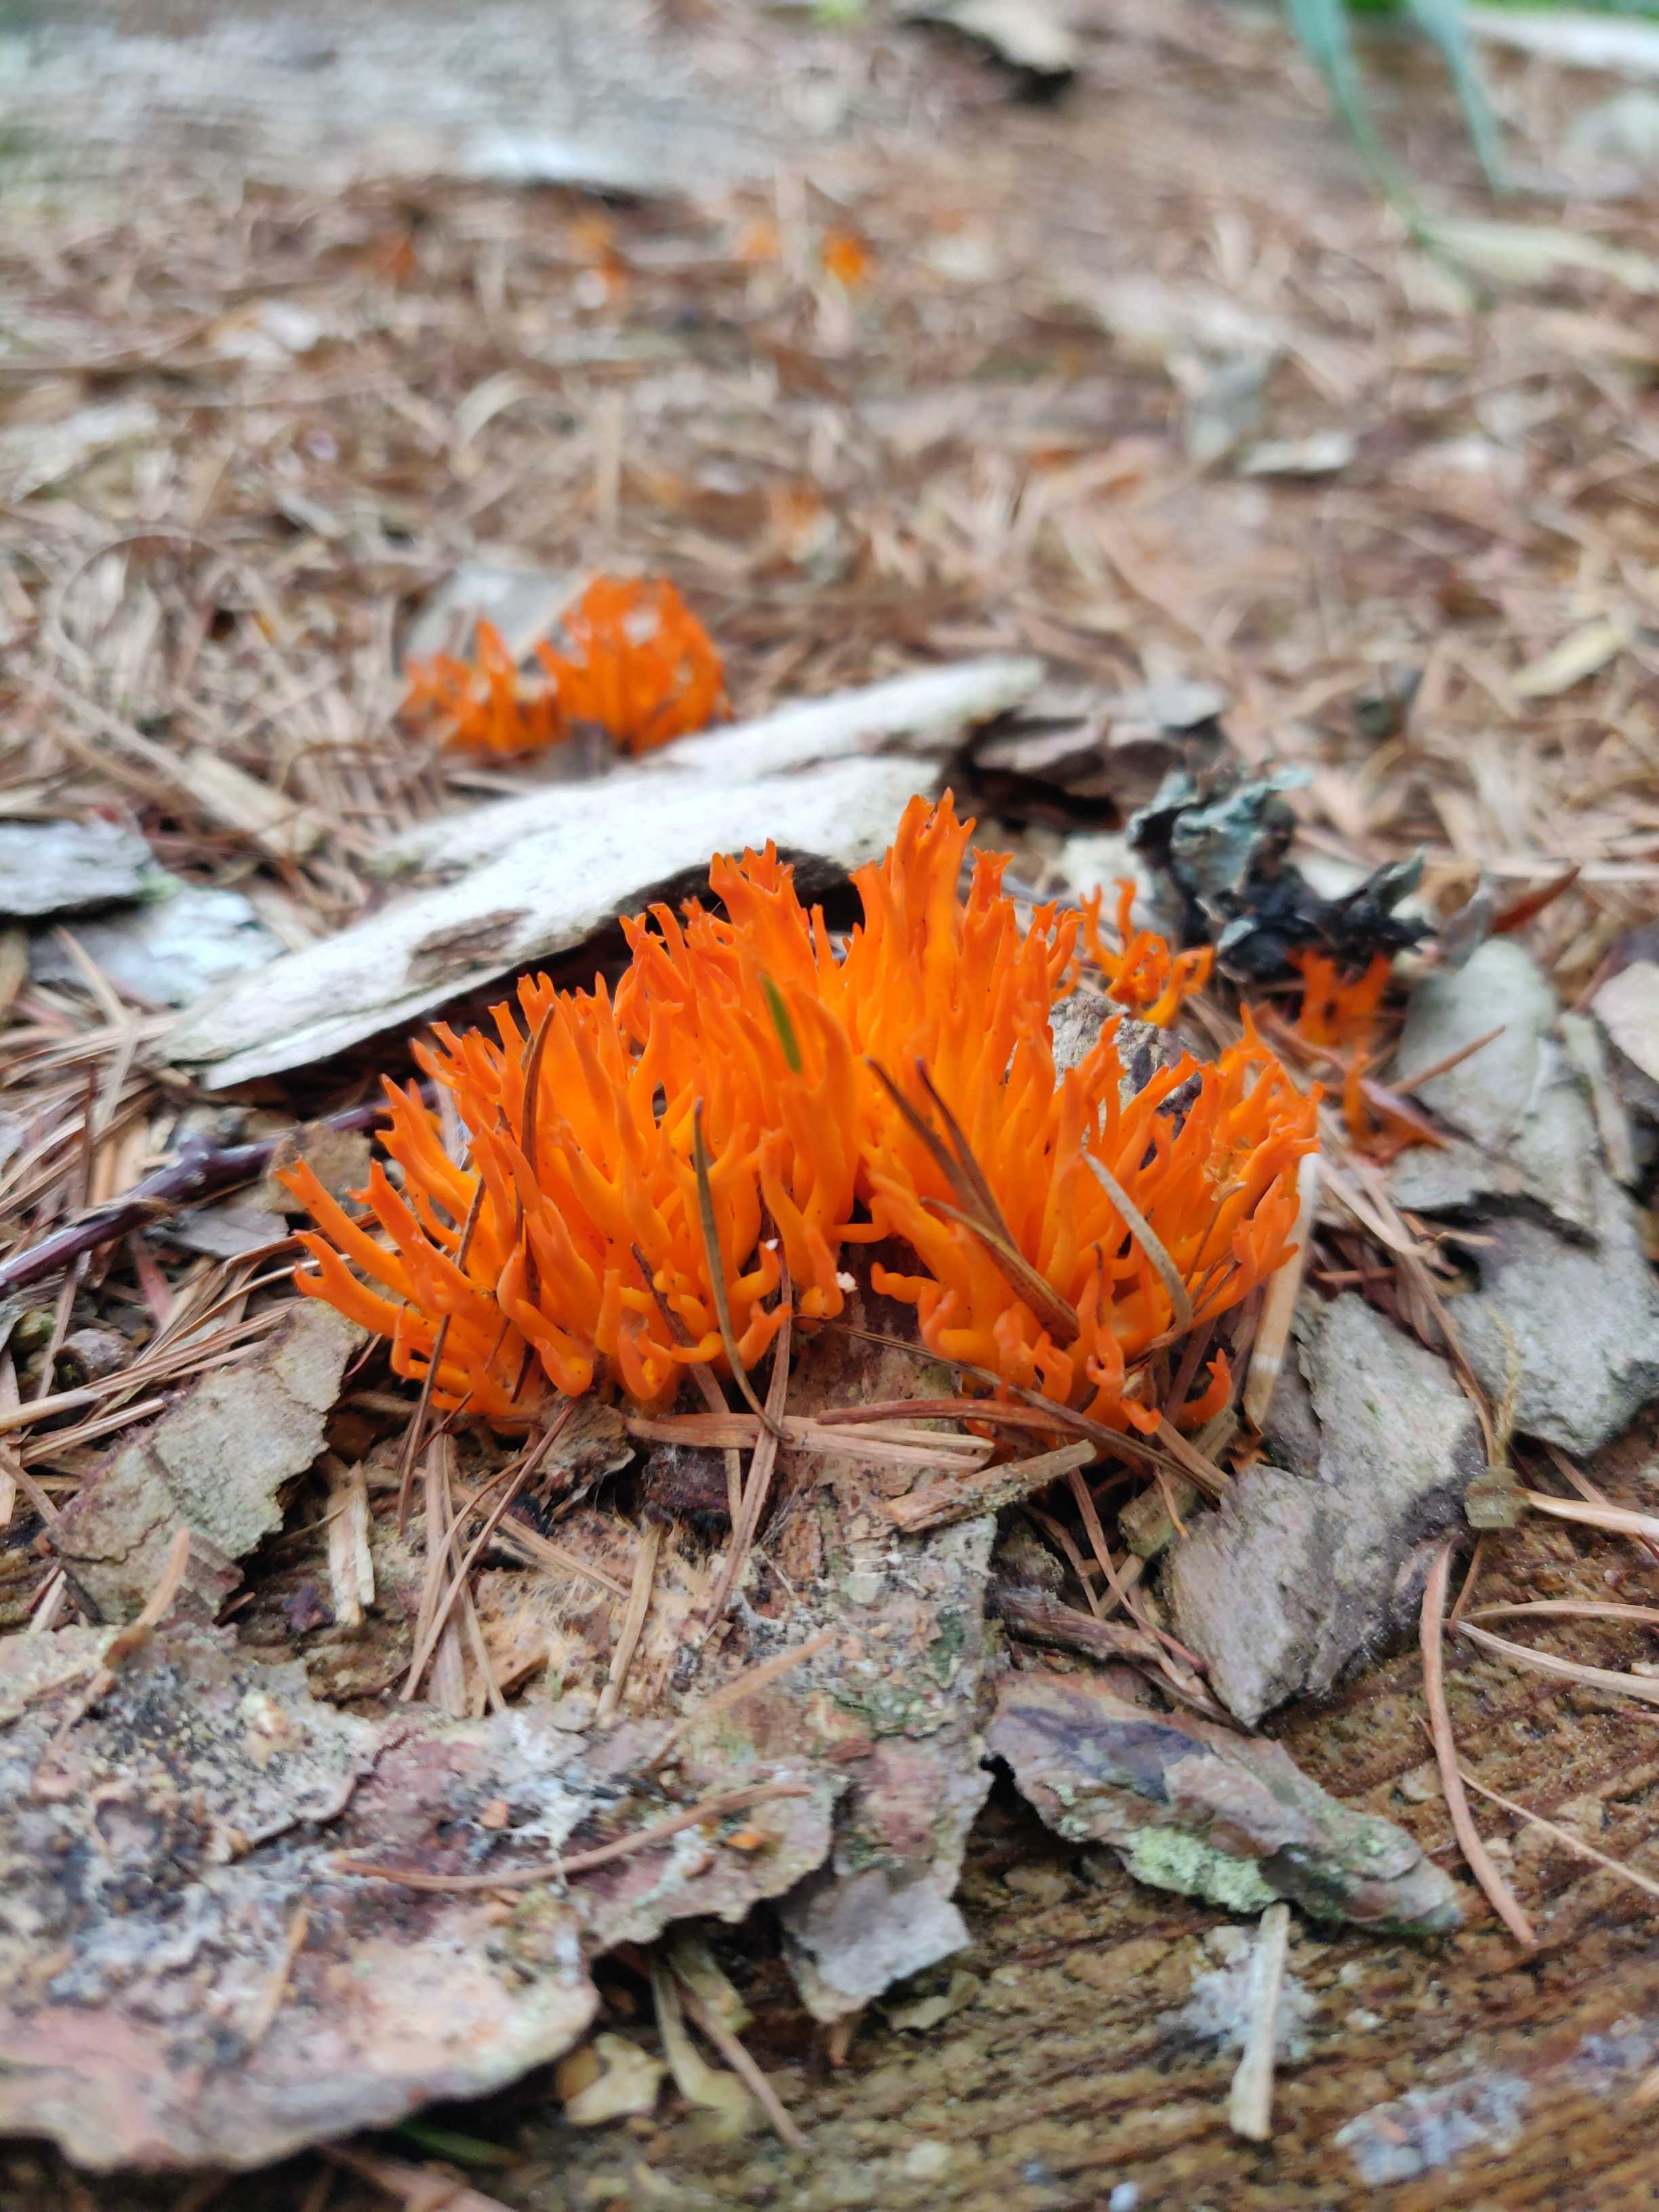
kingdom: Fungi
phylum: Basidiomycota
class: Dacrymycetes
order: Dacrymycetales
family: Dacrymycetaceae
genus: Calocera
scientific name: Calocera viscosa
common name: almindelig guldgaffel
